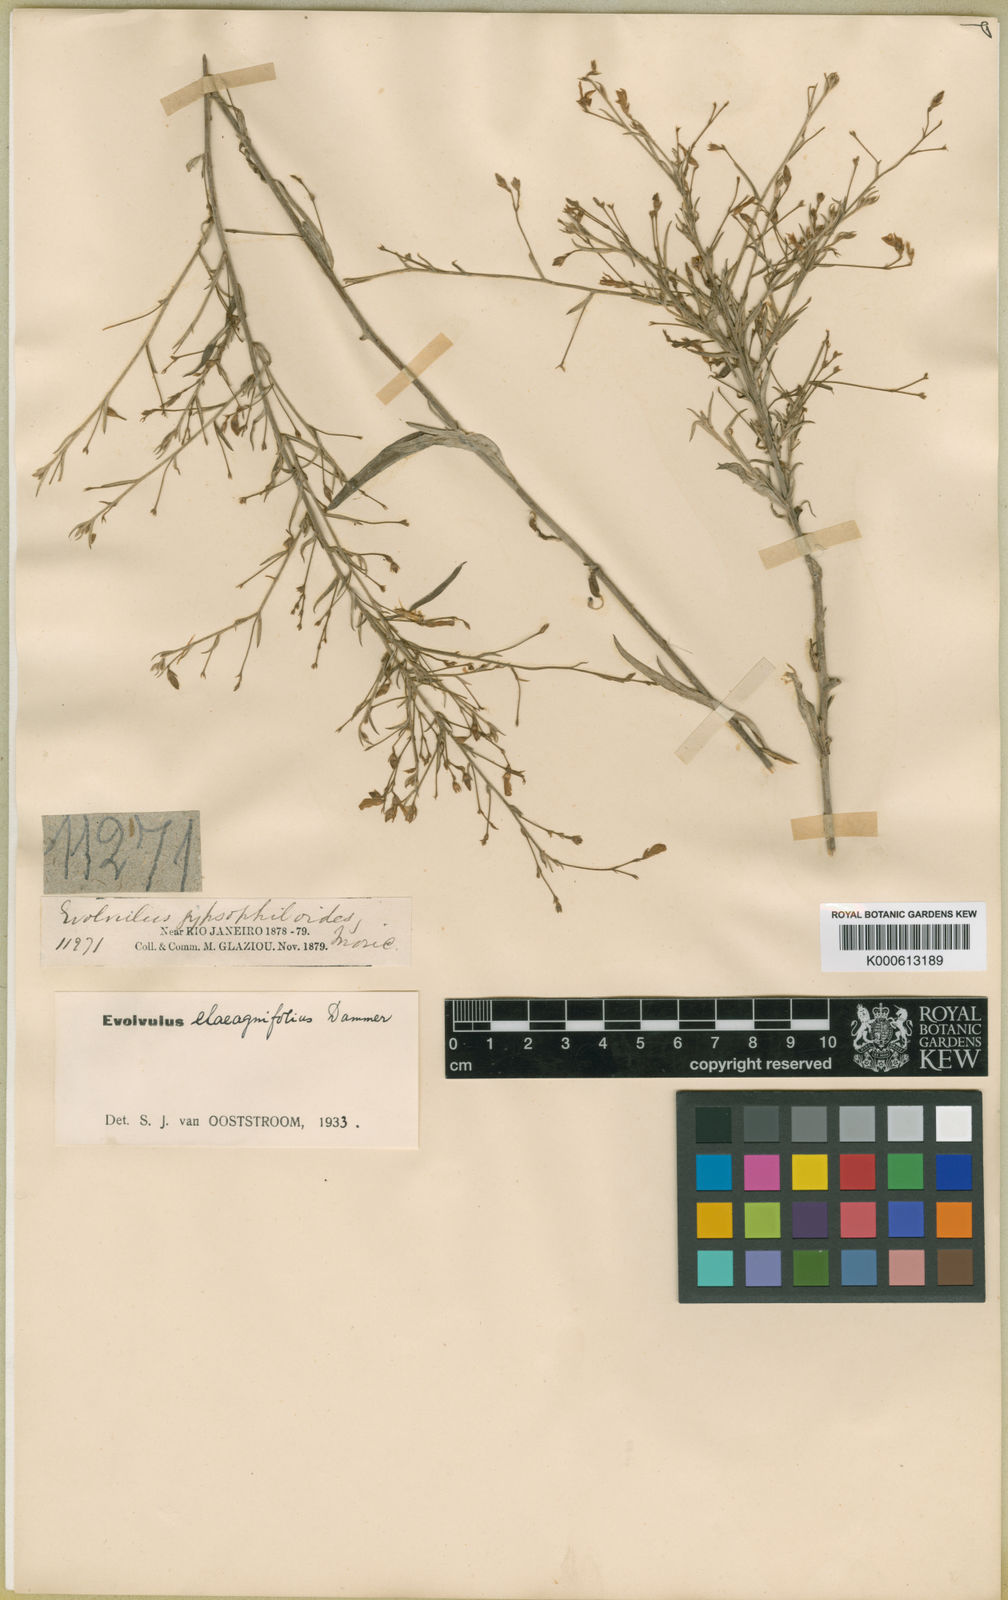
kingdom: Plantae
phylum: Tracheophyta
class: Magnoliopsida
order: Solanales
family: Convolvulaceae
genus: Evolvulus
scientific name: Evolvulus
